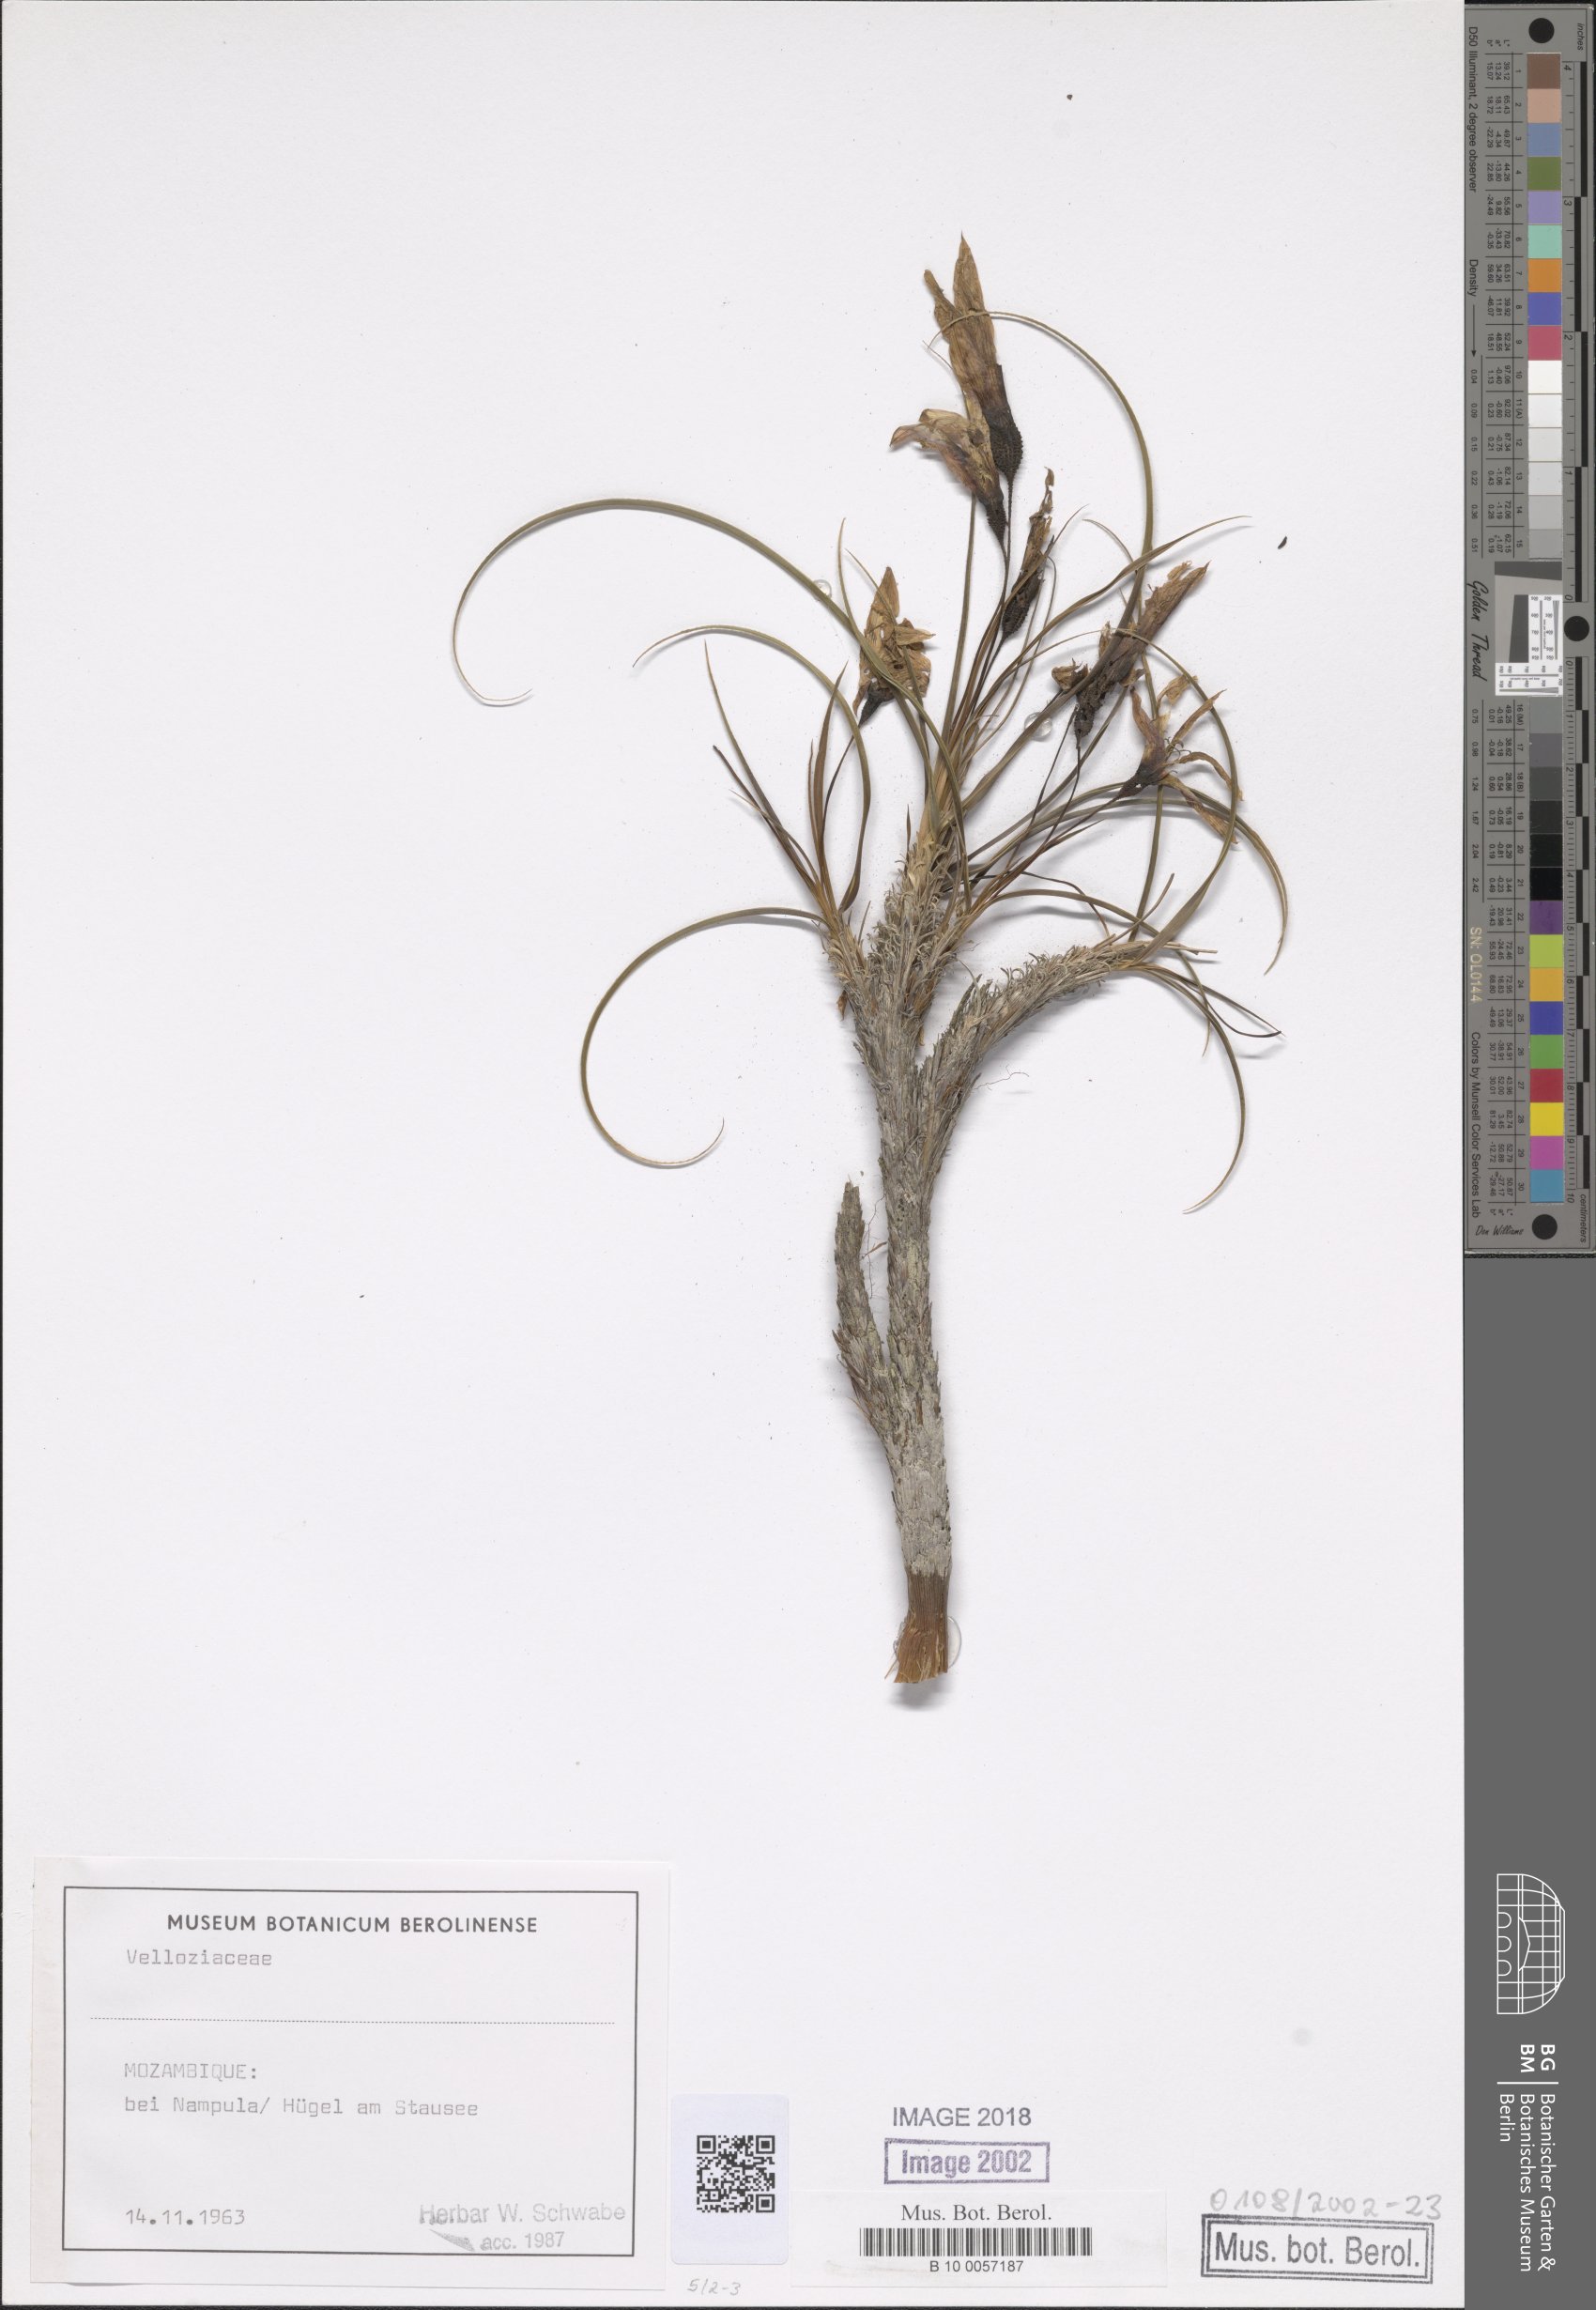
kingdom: Plantae
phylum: Tracheophyta
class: Liliopsida
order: Pandanales
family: Velloziaceae
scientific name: Velloziaceae
